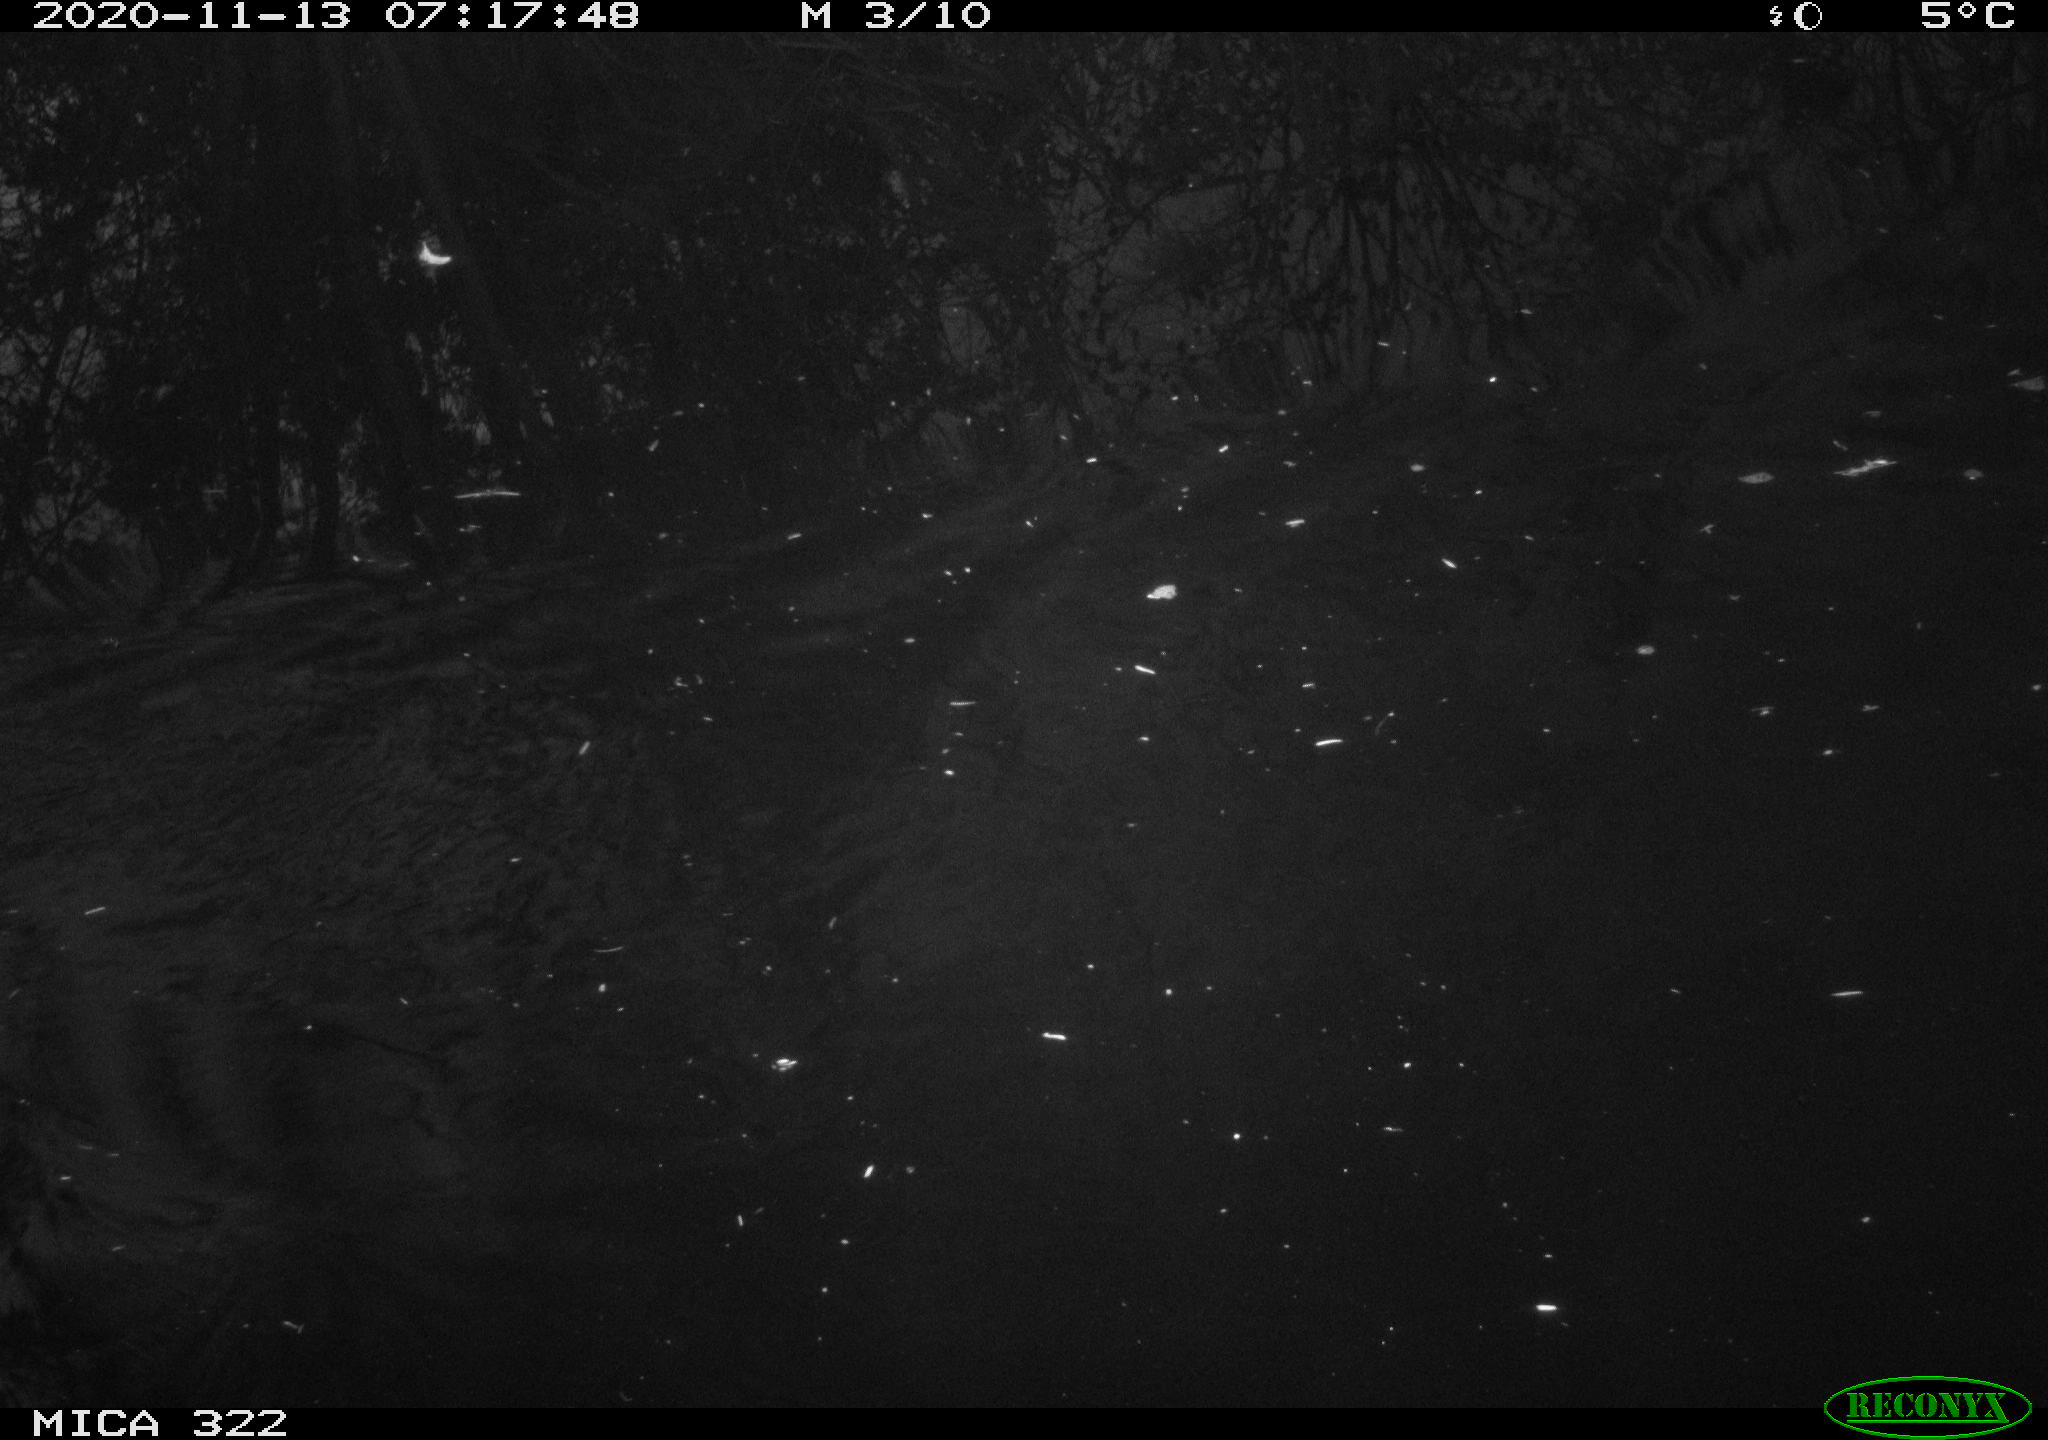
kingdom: Animalia
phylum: Chordata
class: Aves
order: Gruiformes
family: Rallidae
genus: Gallinula
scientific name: Gallinula chloropus
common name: Common moorhen
